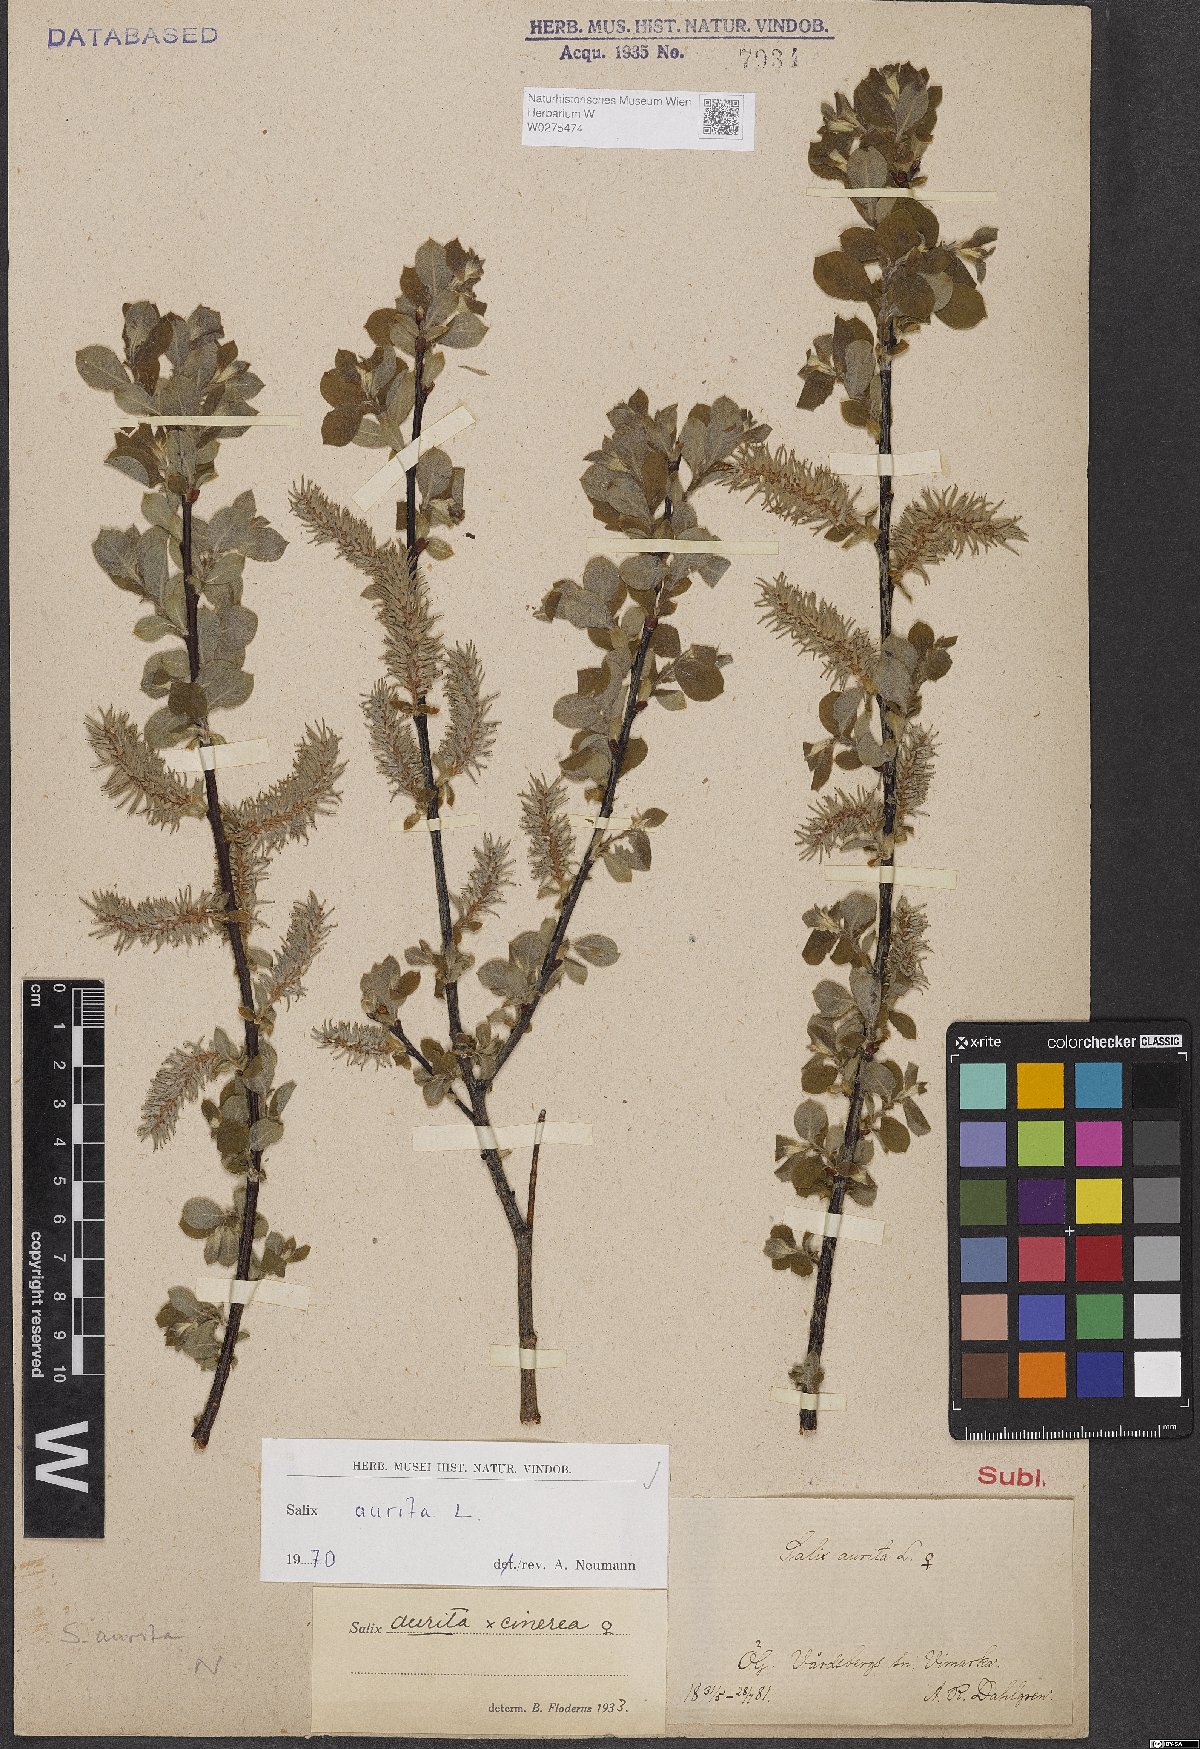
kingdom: Plantae
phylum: Tracheophyta
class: Magnoliopsida
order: Malpighiales
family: Salicaceae
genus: Salix
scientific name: Salix aurita
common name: Eared willow
